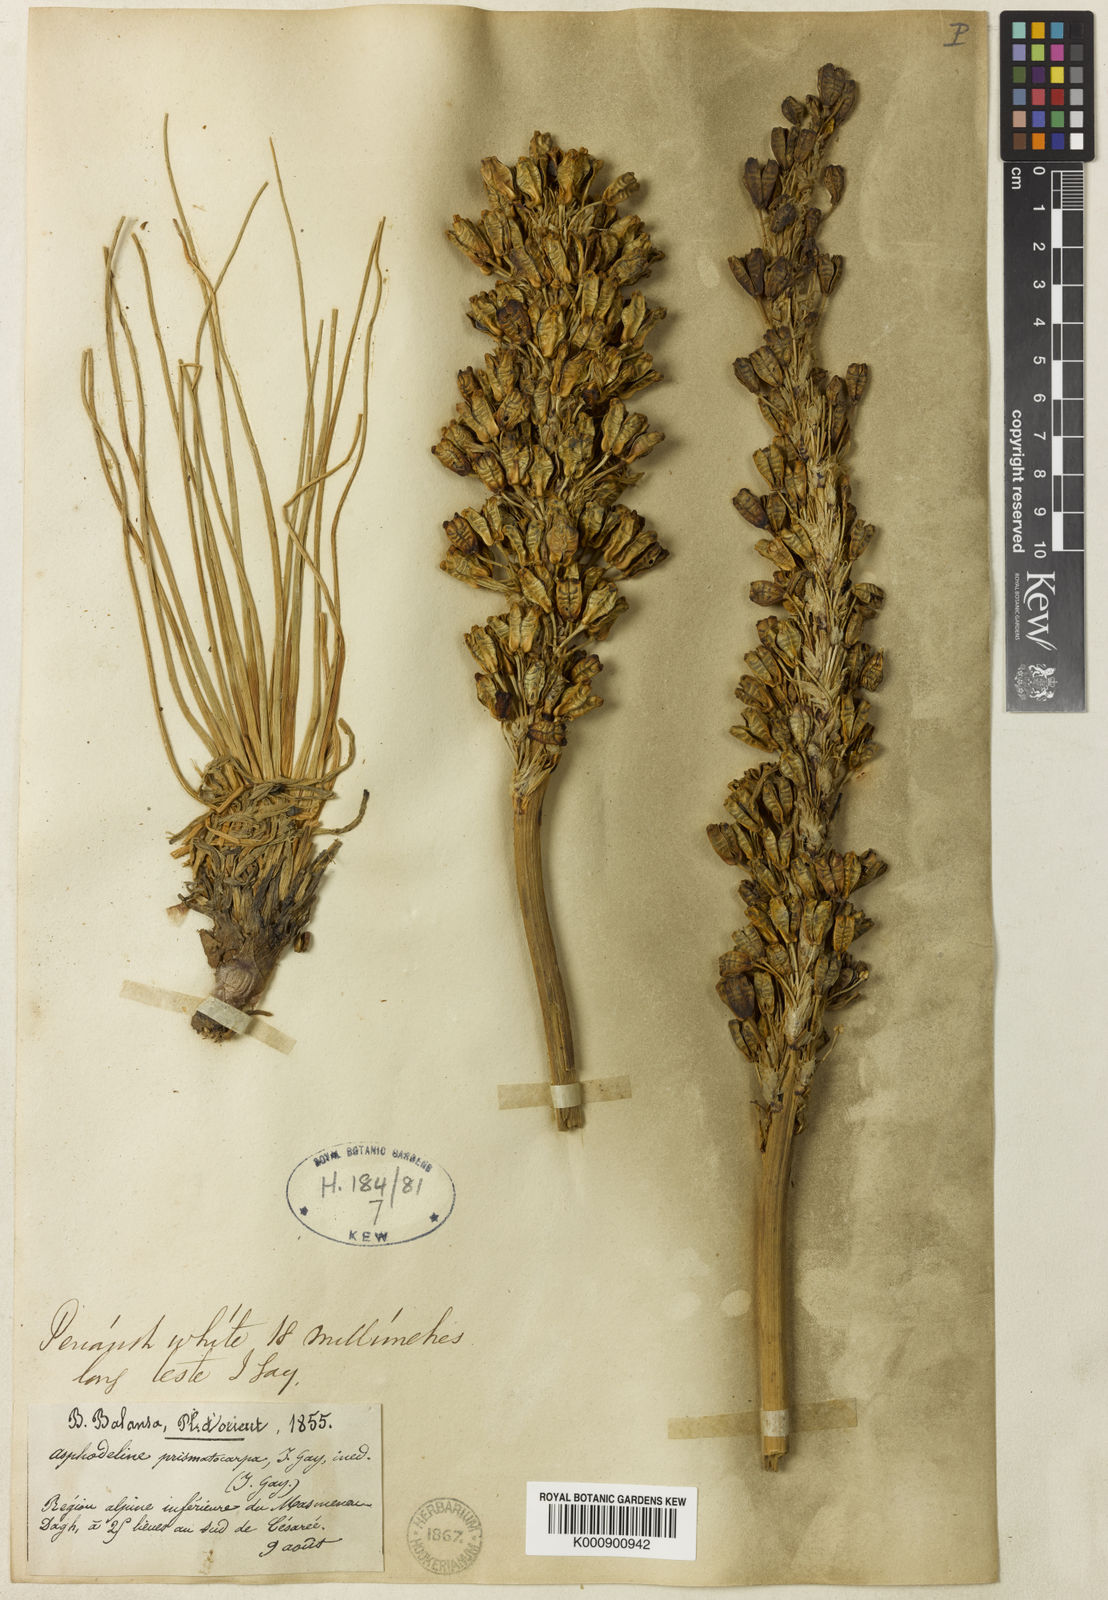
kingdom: Plantae
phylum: Tracheophyta
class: Liliopsida
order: Asparagales
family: Asphodelaceae
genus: Asphodeline
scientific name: Asphodeline prismatocarpa
